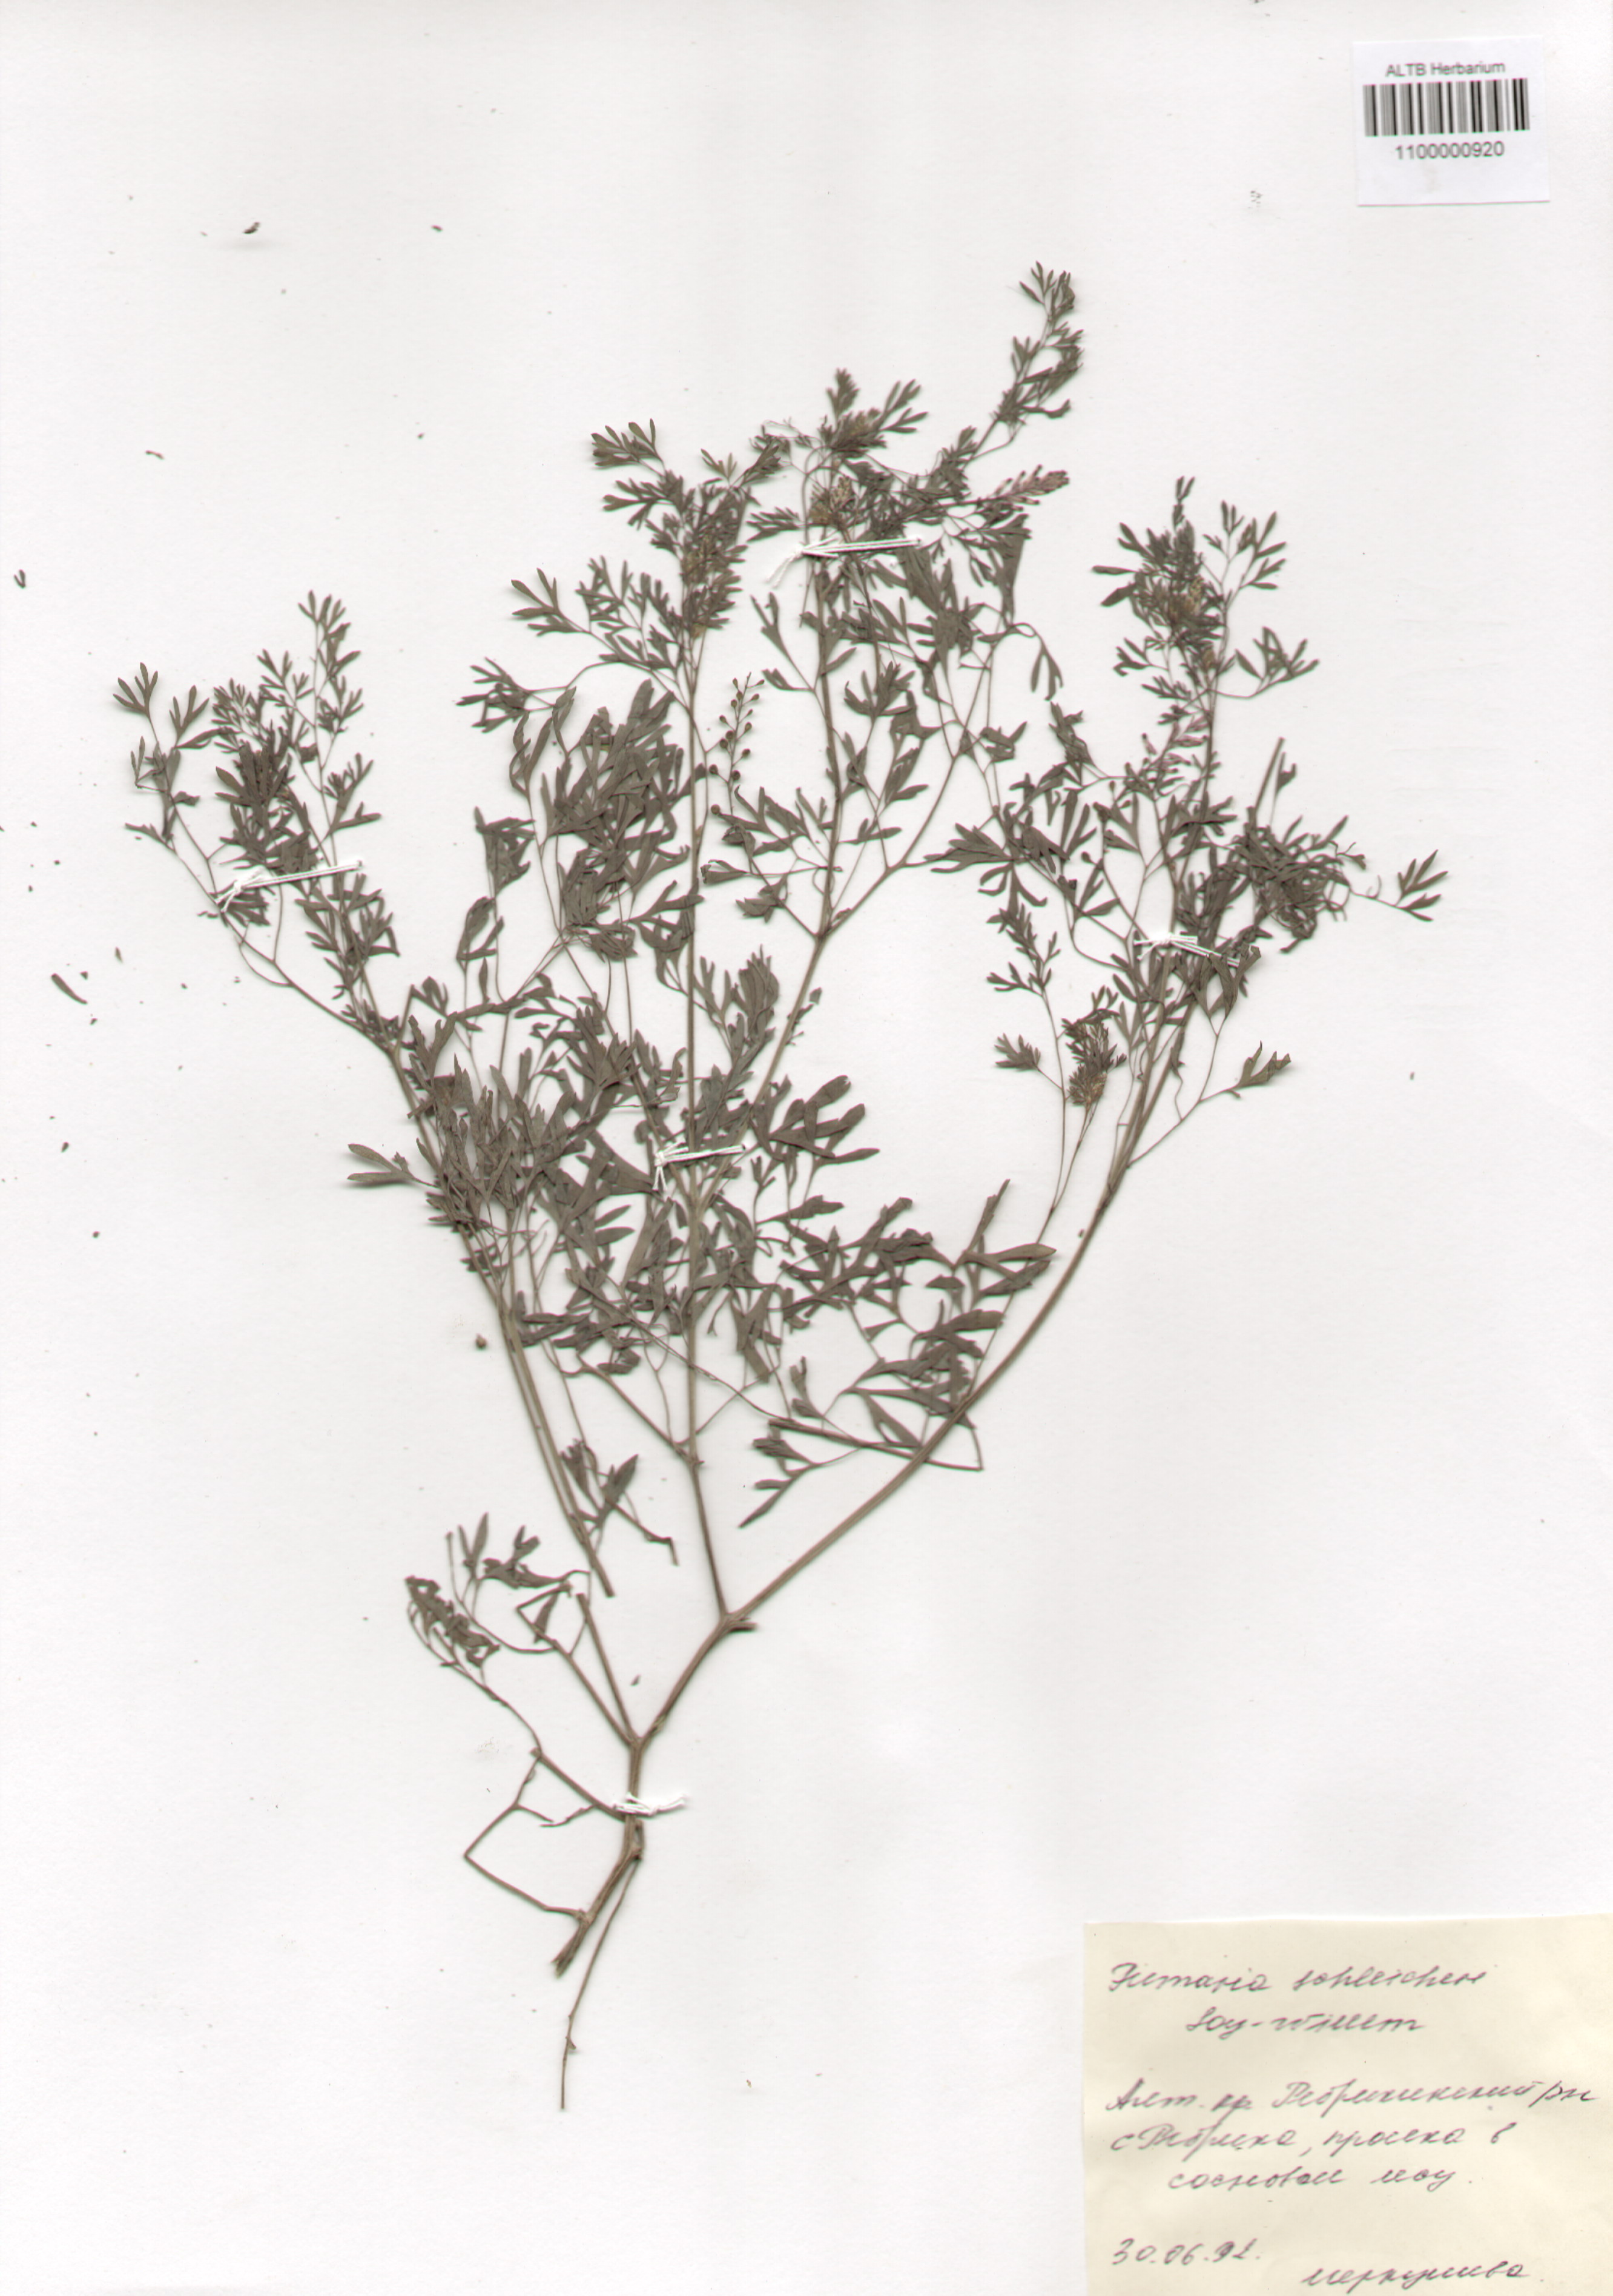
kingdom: Plantae
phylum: Tracheophyta
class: Magnoliopsida
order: Ranunculales
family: Papaveraceae
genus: Fumaria
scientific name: Fumaria schleicheri
